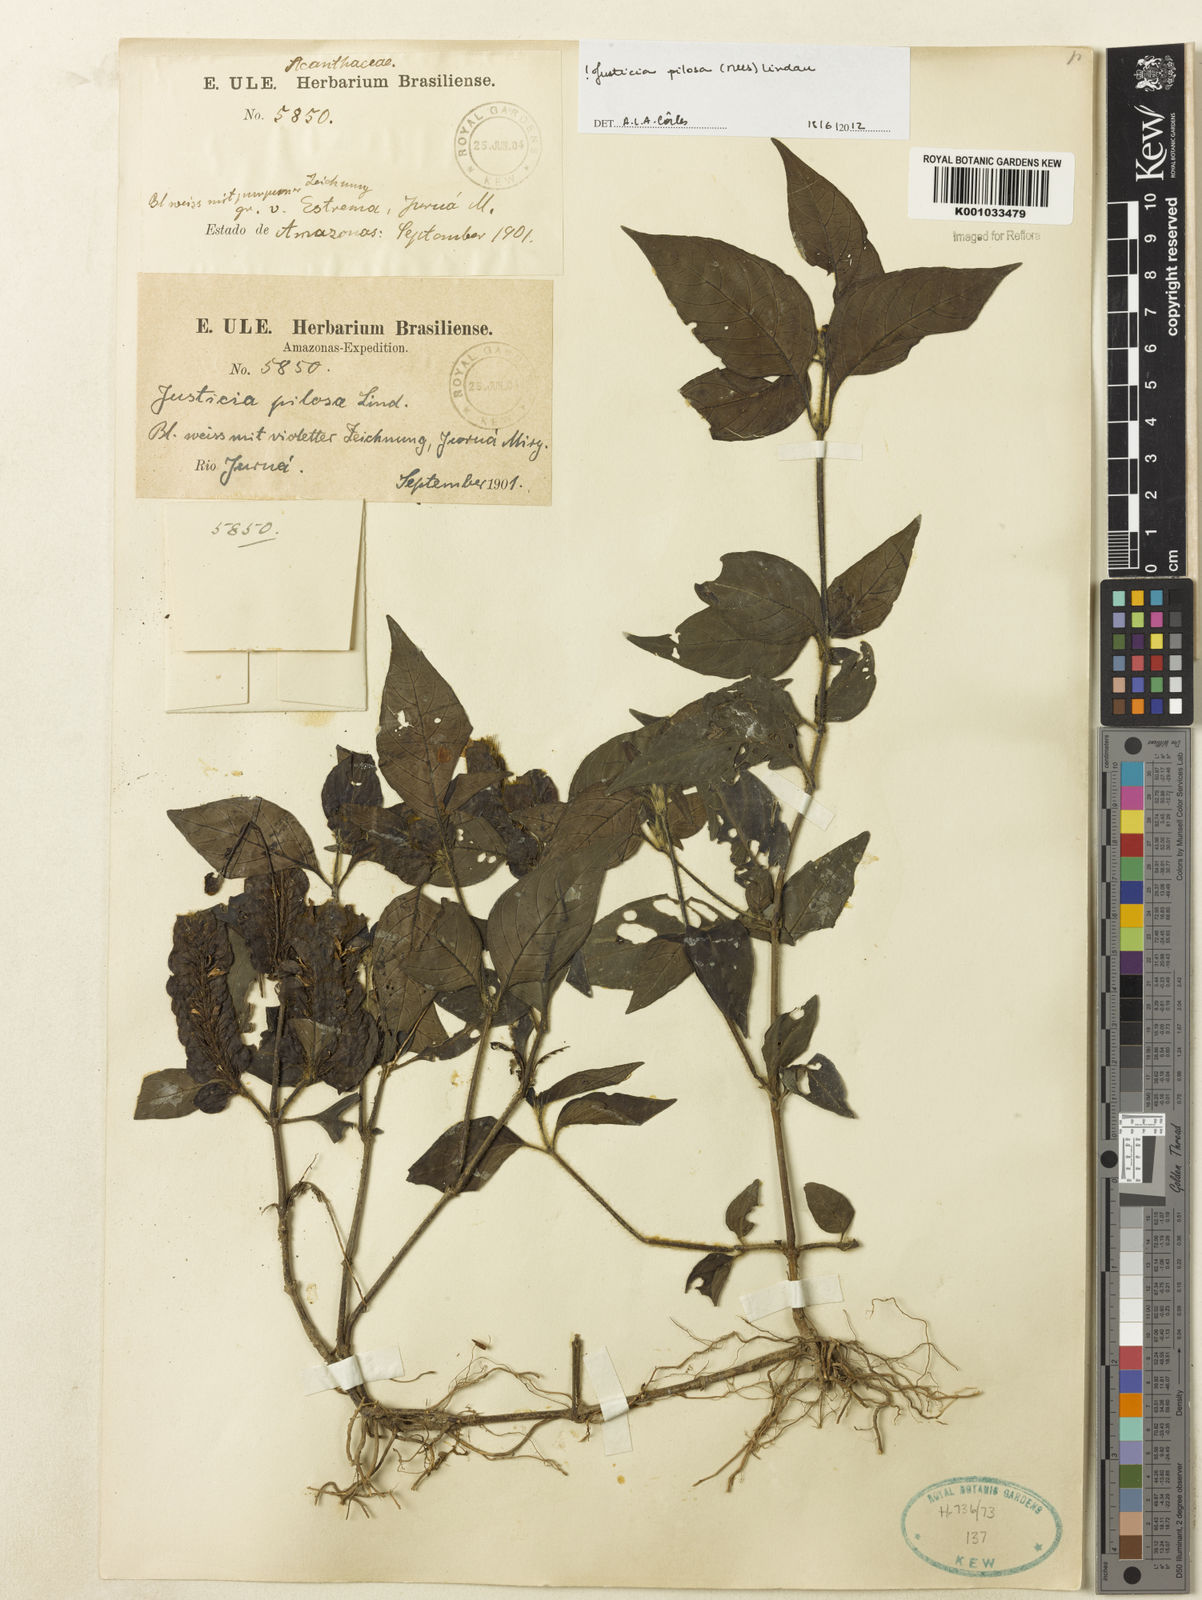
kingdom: Plantae
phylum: Tracheophyta
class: Magnoliopsida
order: Lamiales
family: Acanthaceae
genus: Justicia
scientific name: Justicia pilosa
